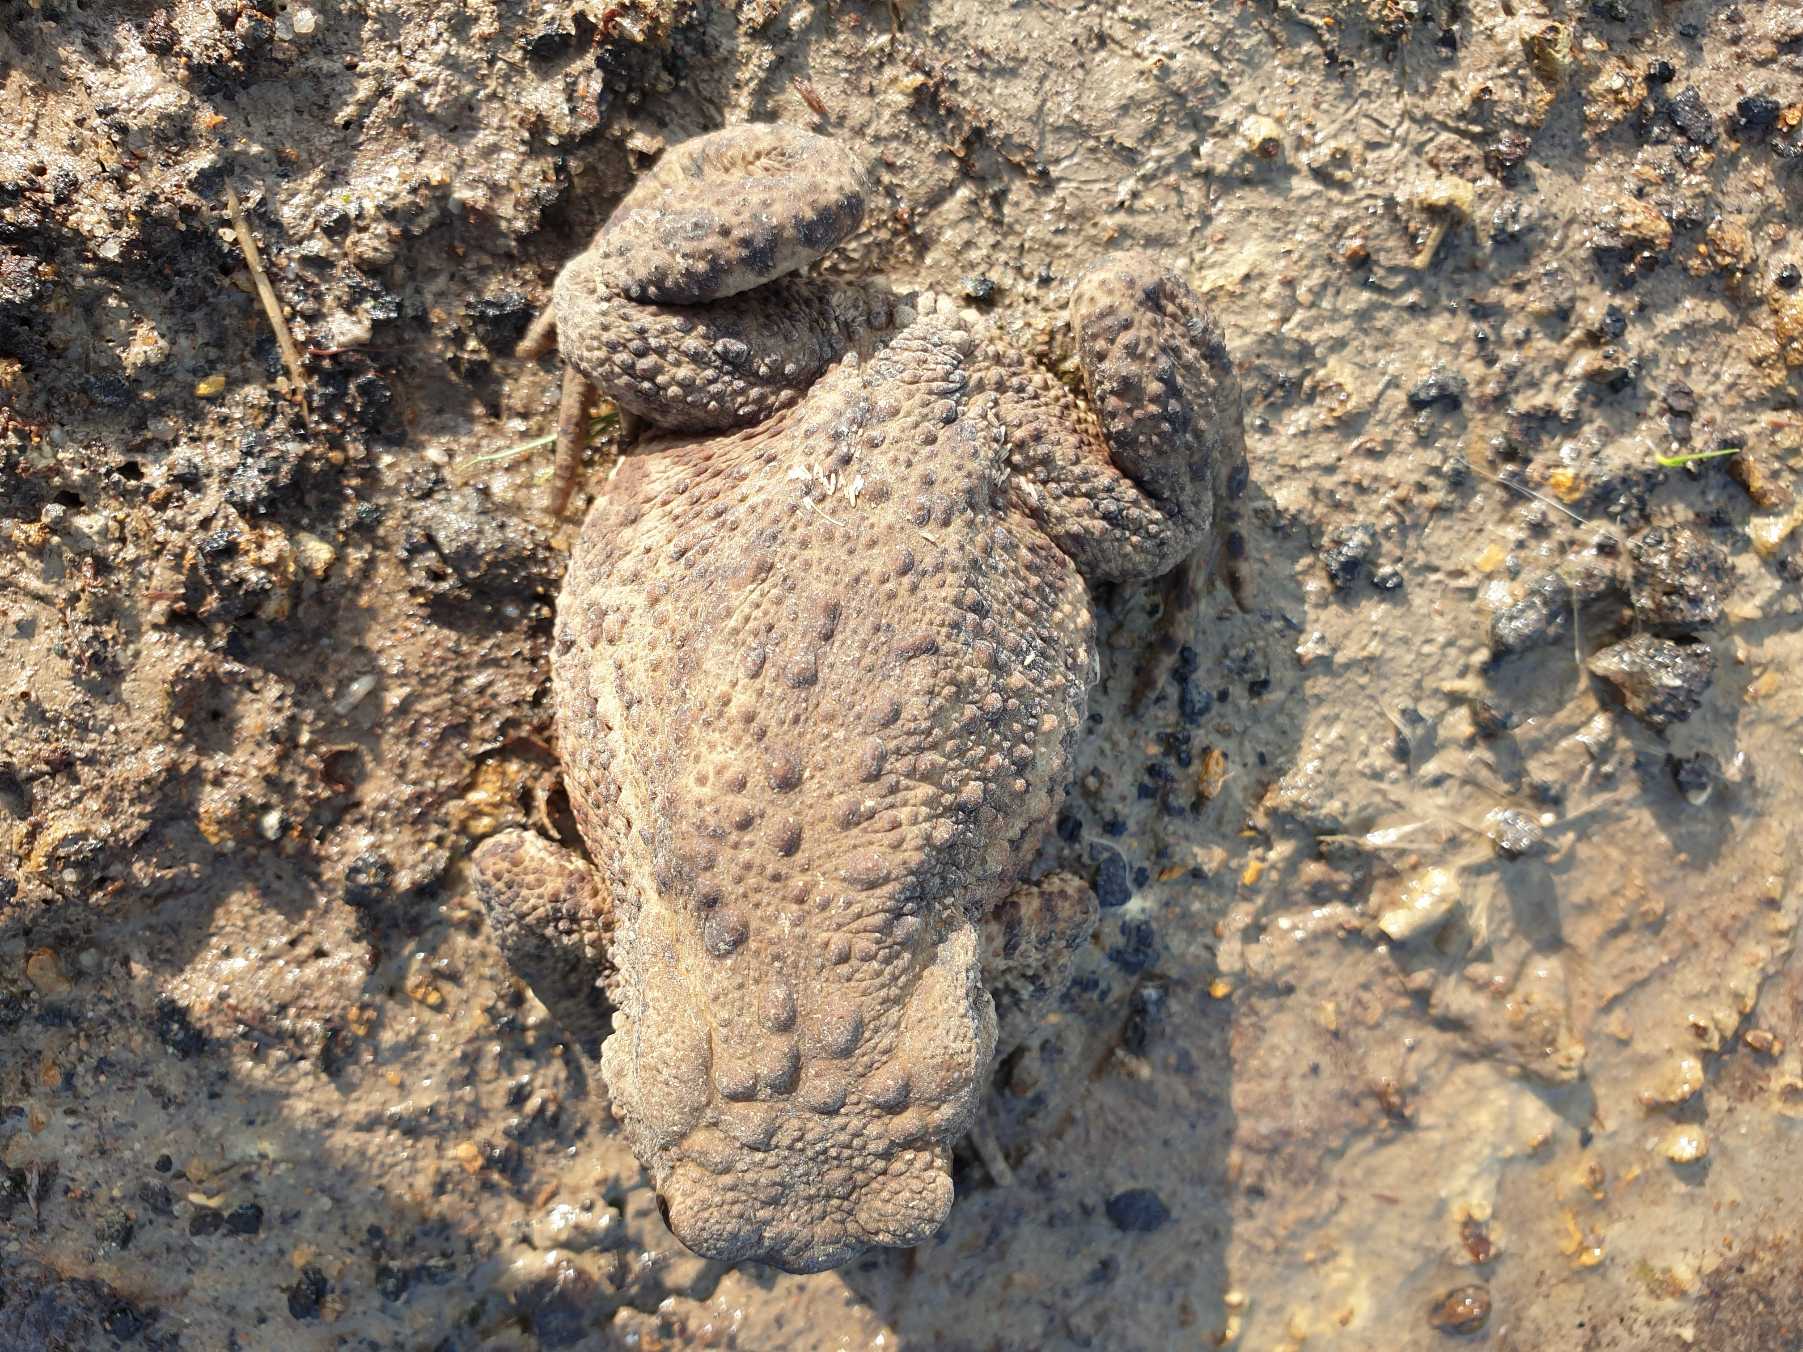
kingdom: Animalia
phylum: Chordata
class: Amphibia
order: Anura
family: Bufonidae
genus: Bufo
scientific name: Bufo bufo
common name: Skrubtudse
